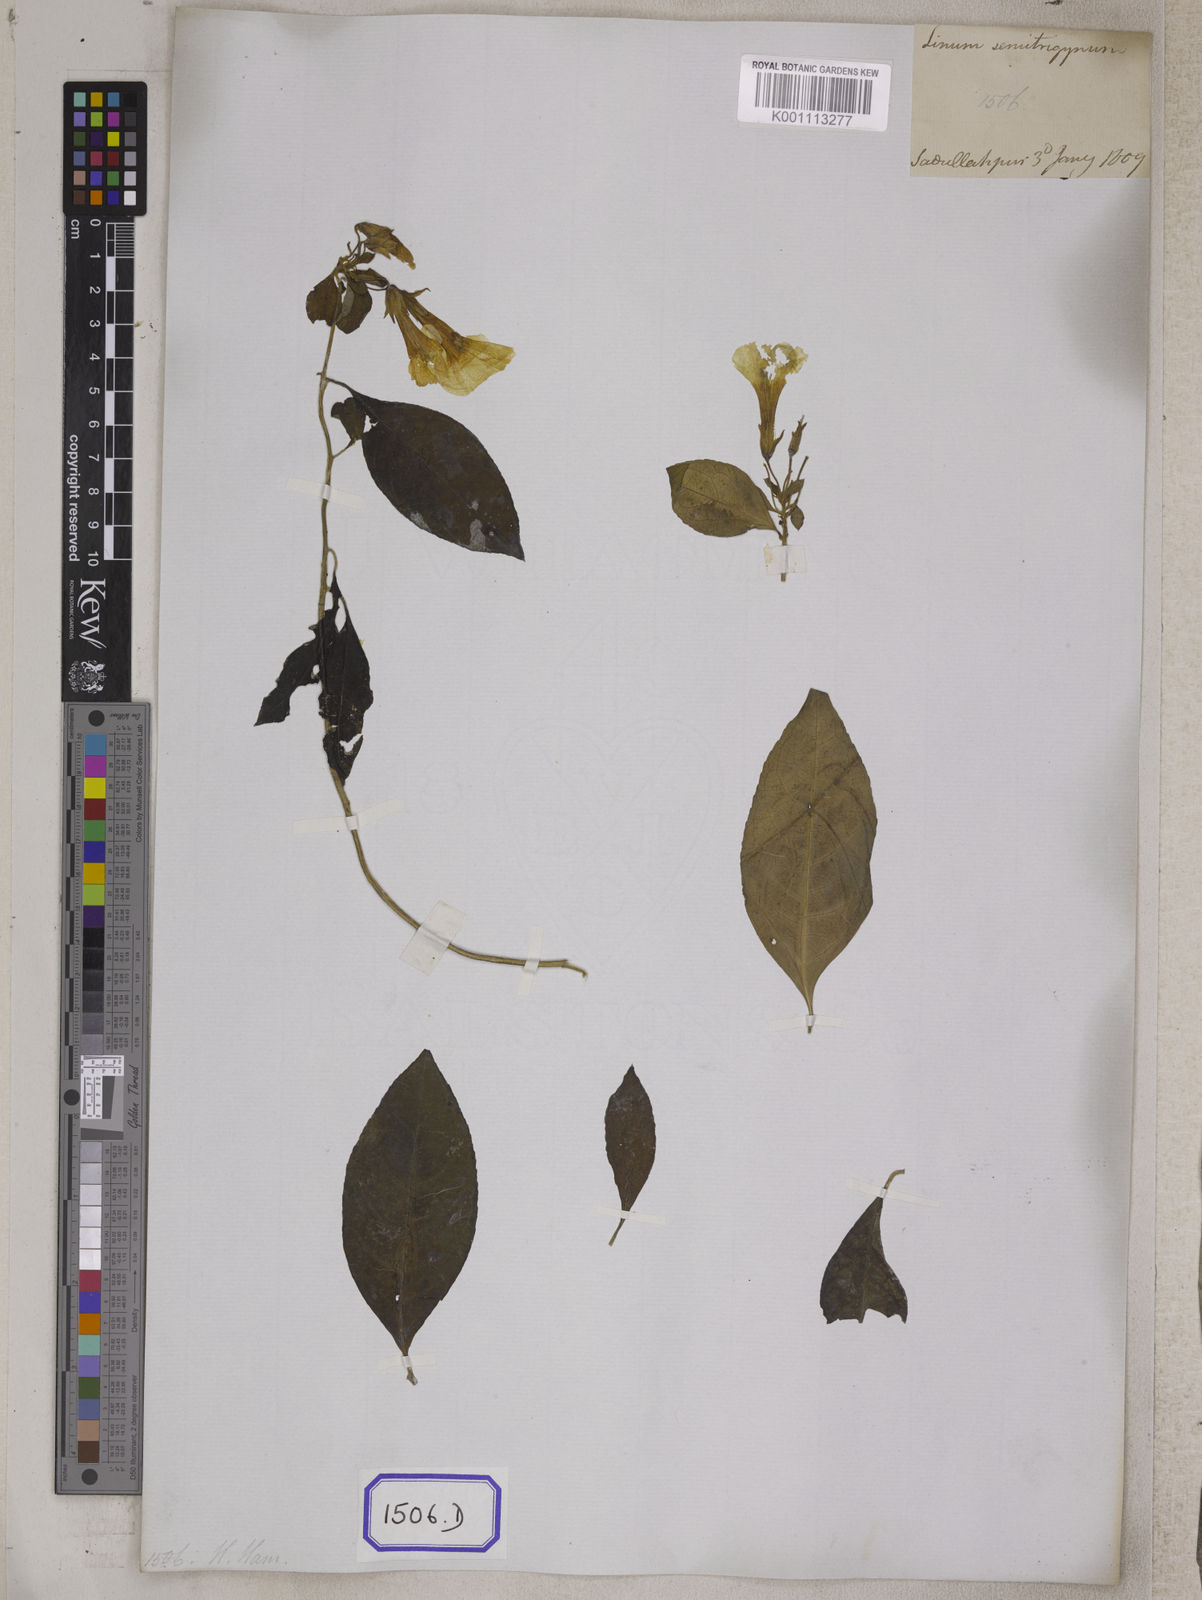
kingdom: Plantae
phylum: Tracheophyta
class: Magnoliopsida
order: Malpighiales
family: Linaceae
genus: Linum
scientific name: Linum
